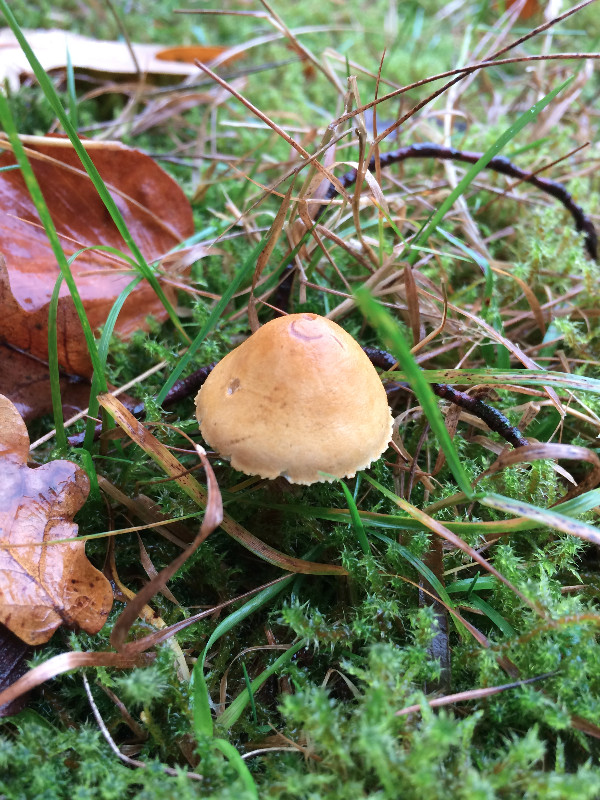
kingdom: Fungi
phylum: Basidiomycota
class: Agaricomycetes
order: Agaricales
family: Tricholomataceae
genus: Cystoderma
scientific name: Cystoderma amianthinum
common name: okkergul grynhat
